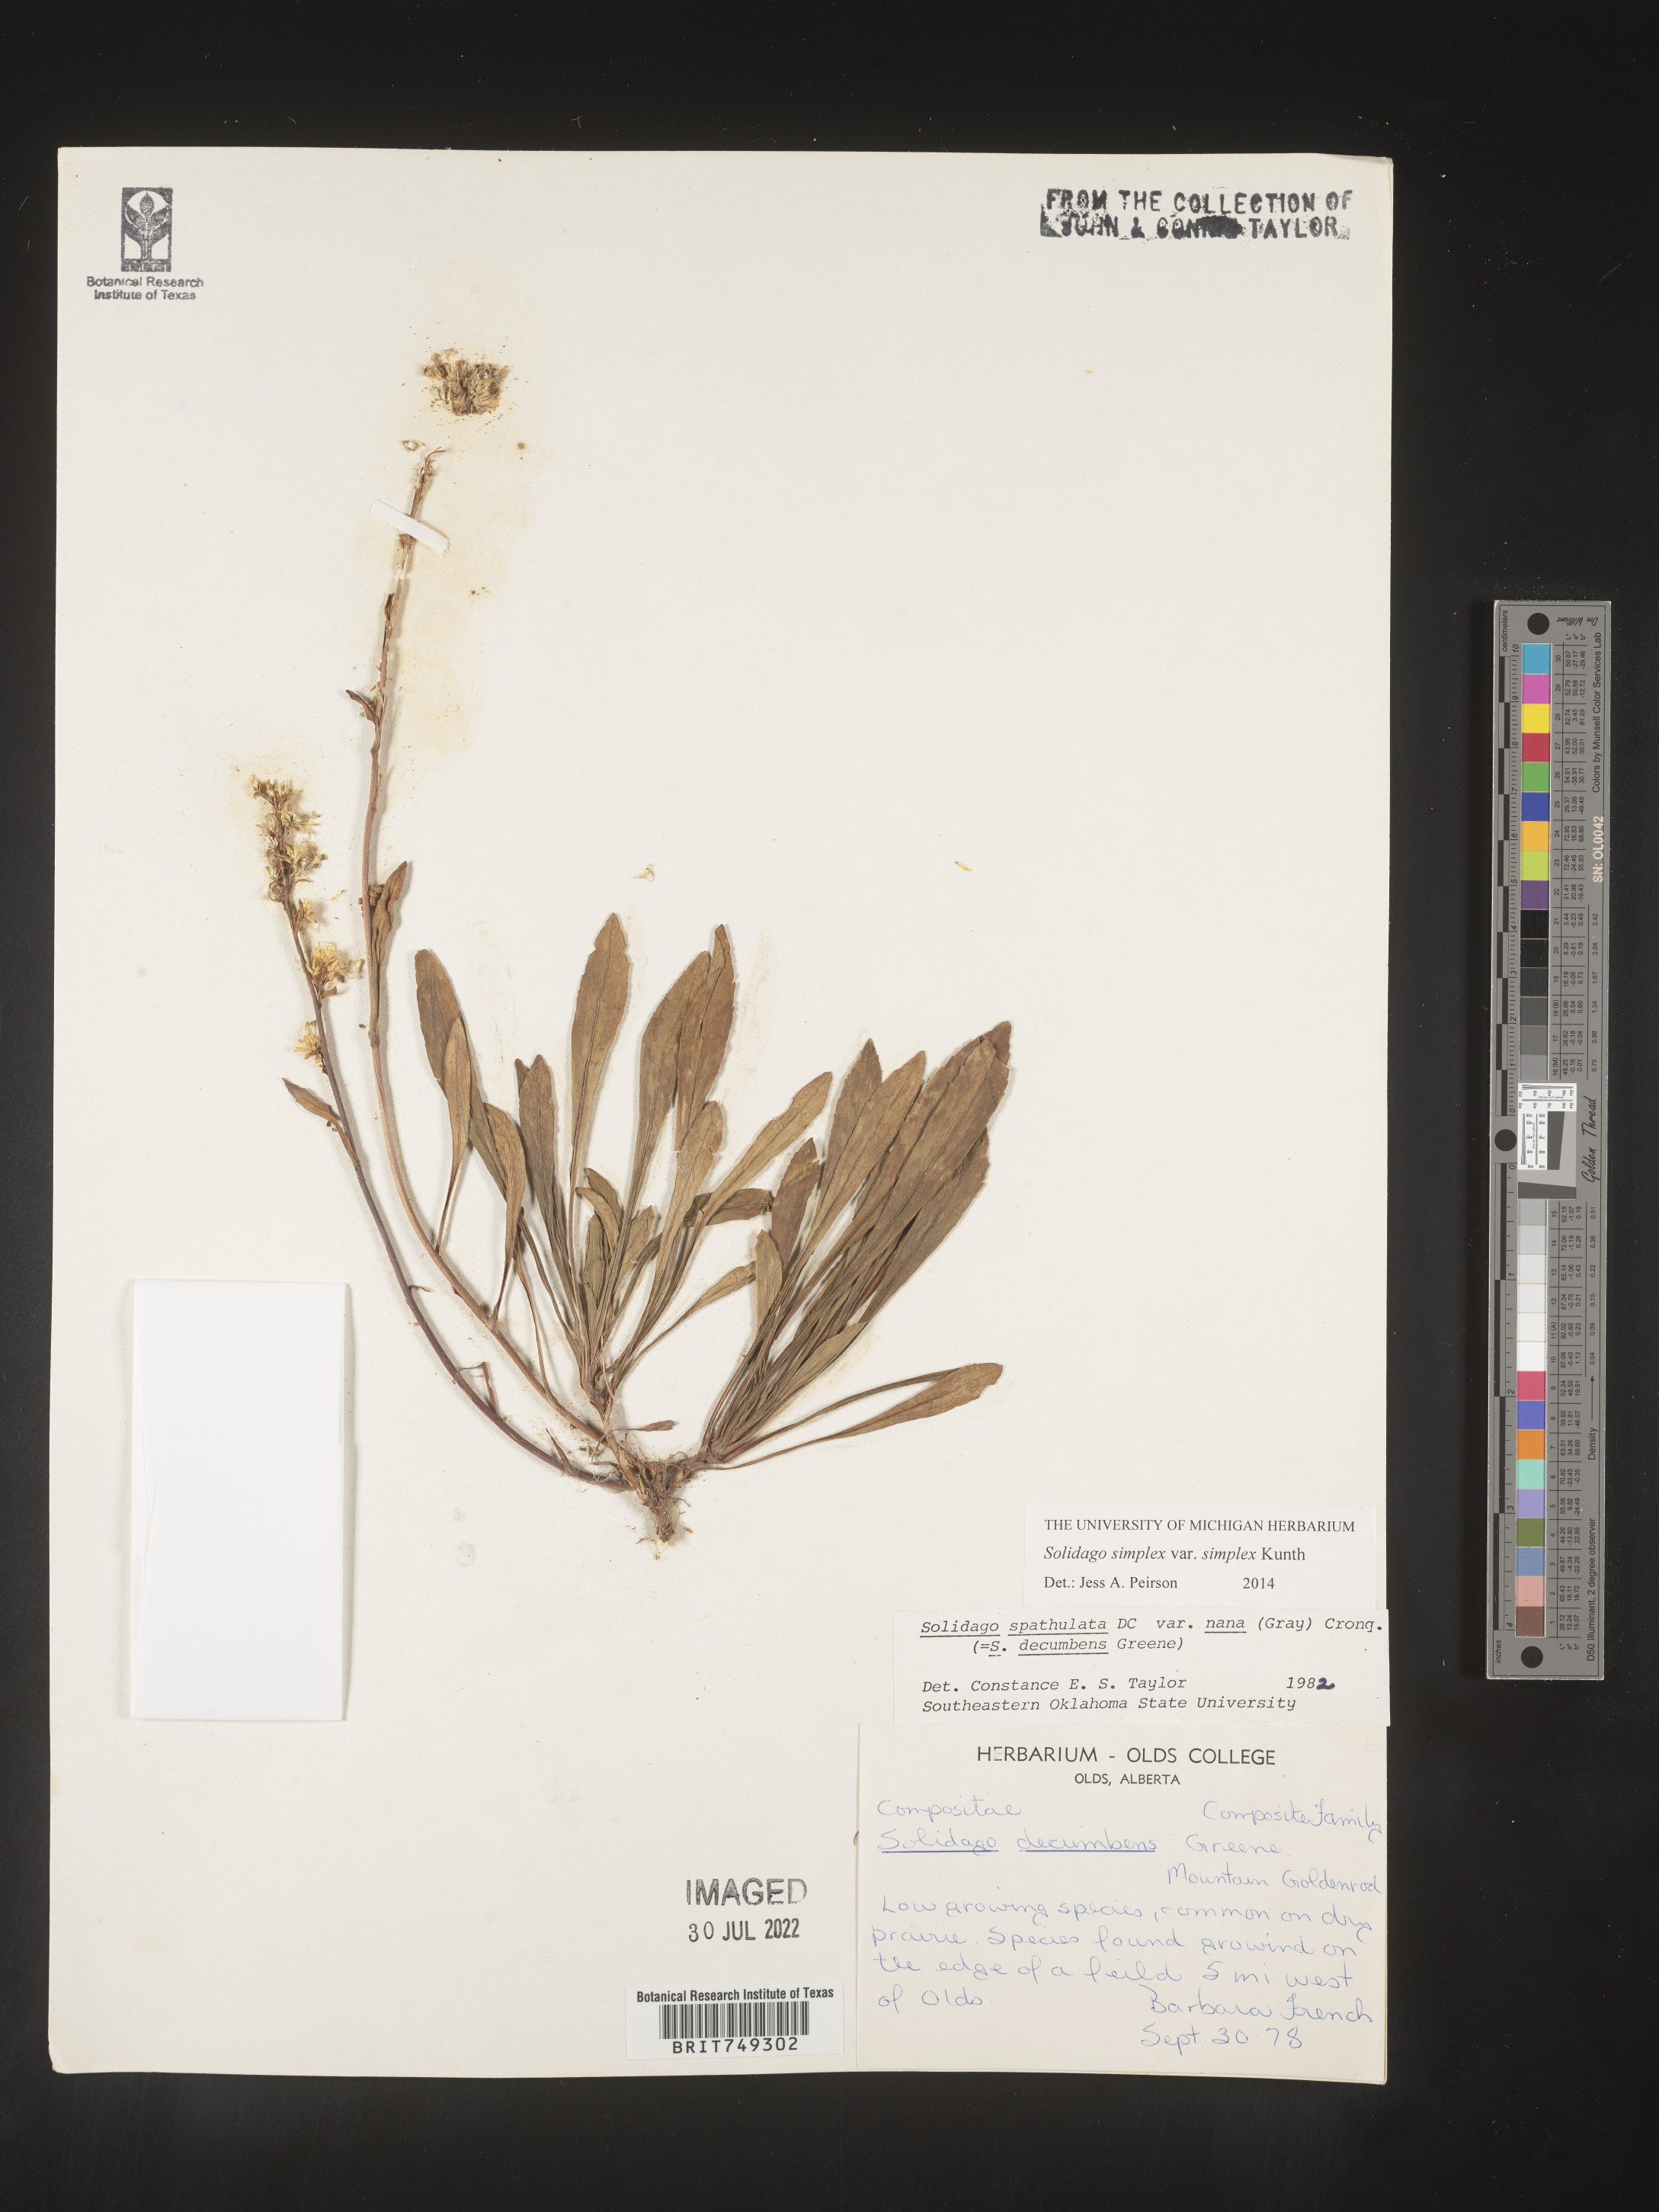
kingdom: Plantae
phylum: Tracheophyta
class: Magnoliopsida
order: Asterales
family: Asteraceae
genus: Solidago
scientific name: Solidago simplex
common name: Sticky goldenrod
